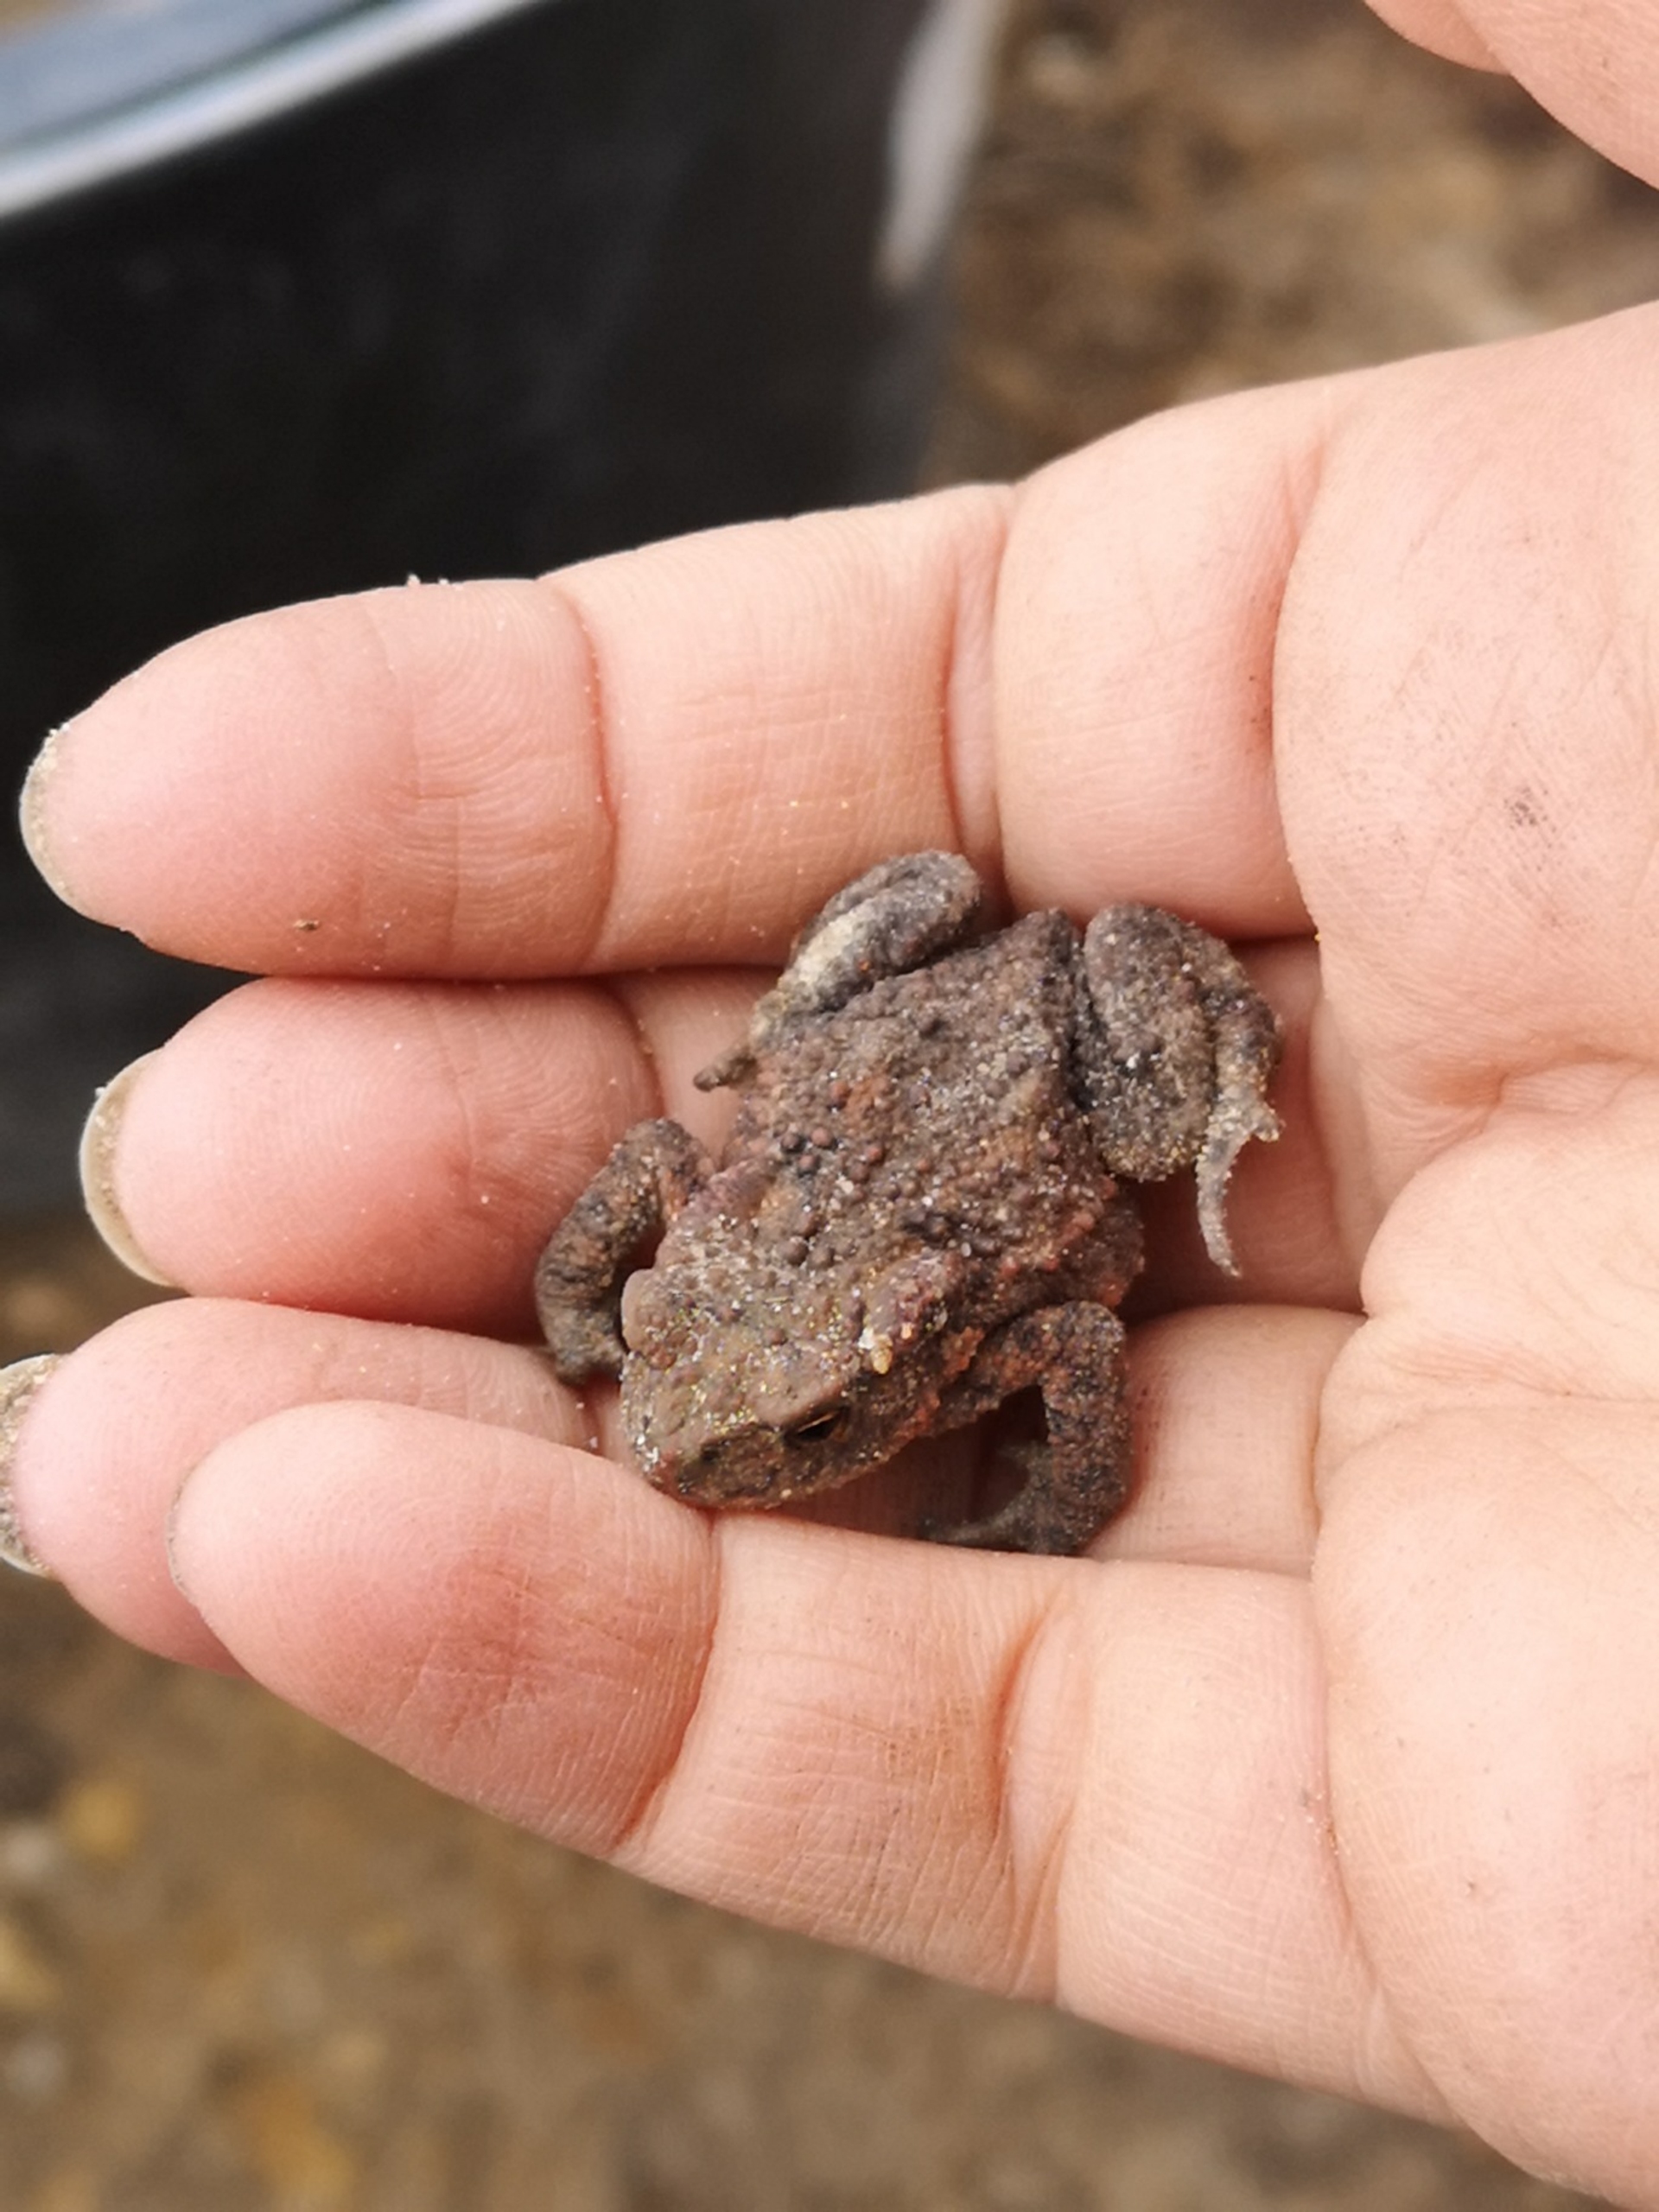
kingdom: Animalia
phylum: Chordata
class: Amphibia
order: Anura
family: Bufonidae
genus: Bufo
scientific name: Bufo bufo
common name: Skrubtudse
